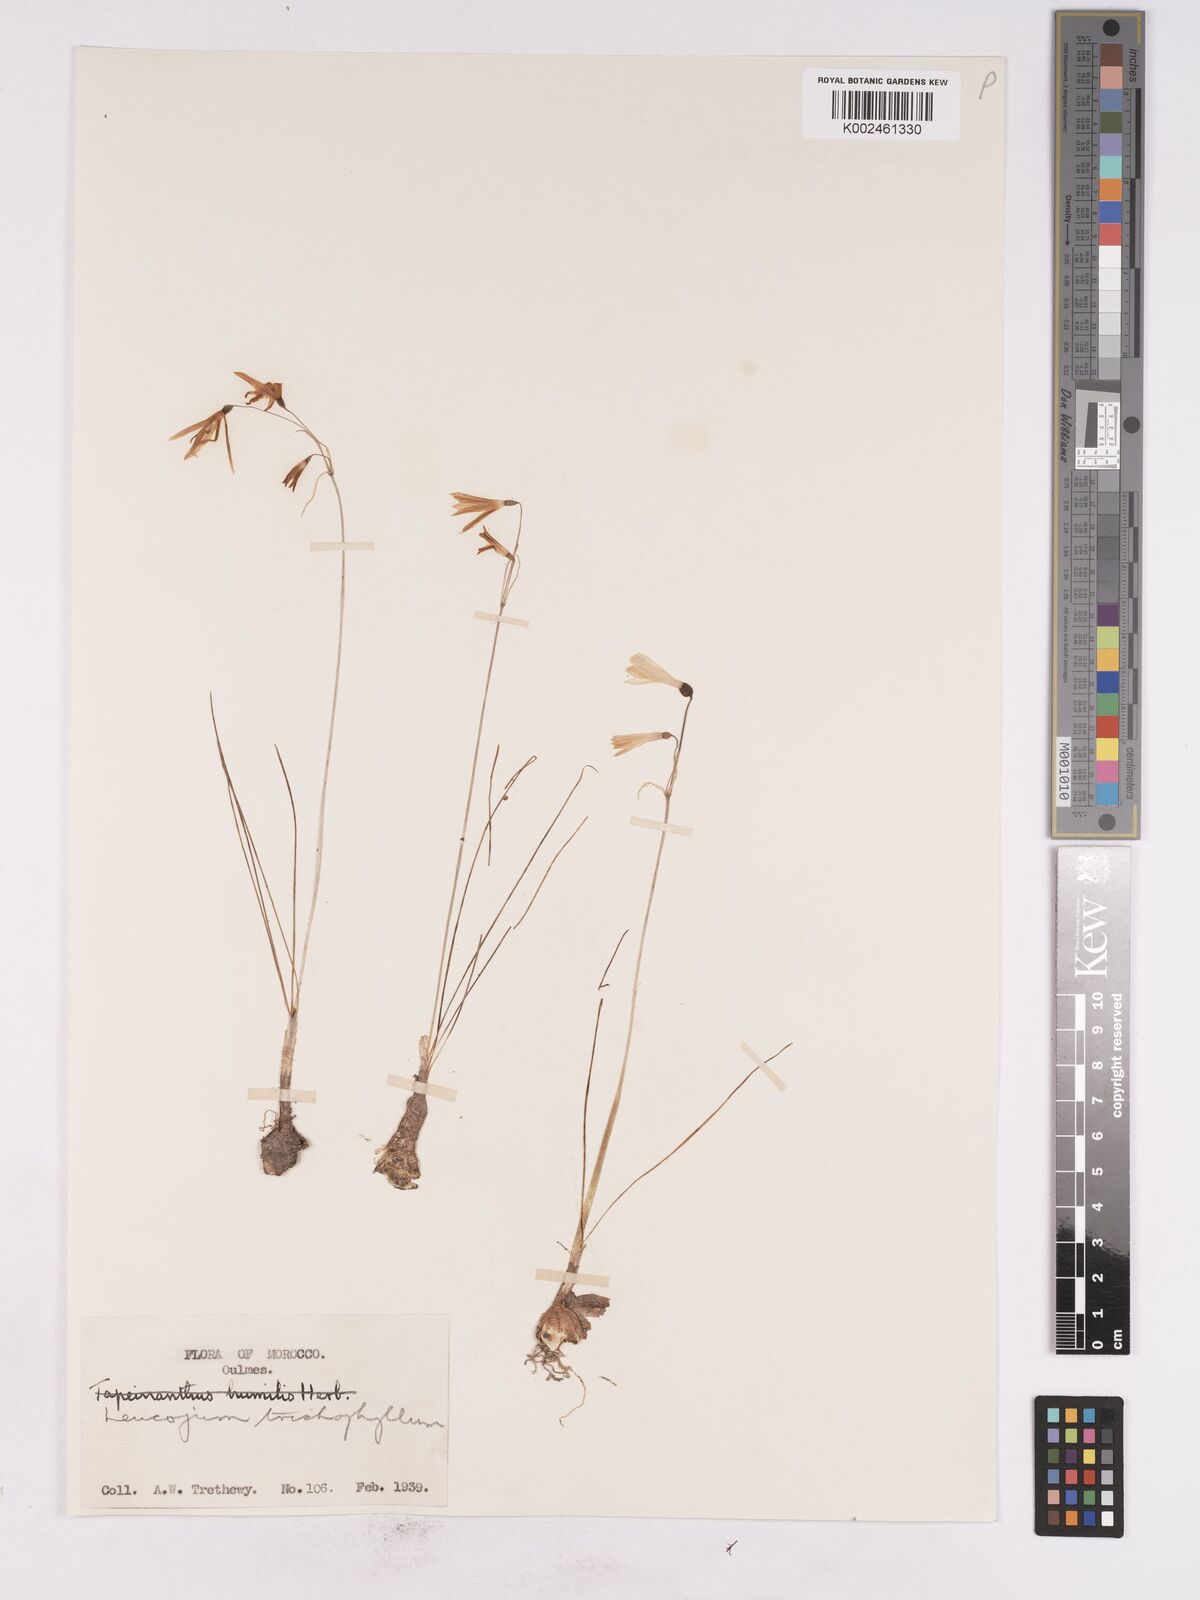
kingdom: Plantae
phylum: Tracheophyta
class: Liliopsida
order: Asparagales
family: Amaryllidaceae
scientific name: Amaryllidaceae
